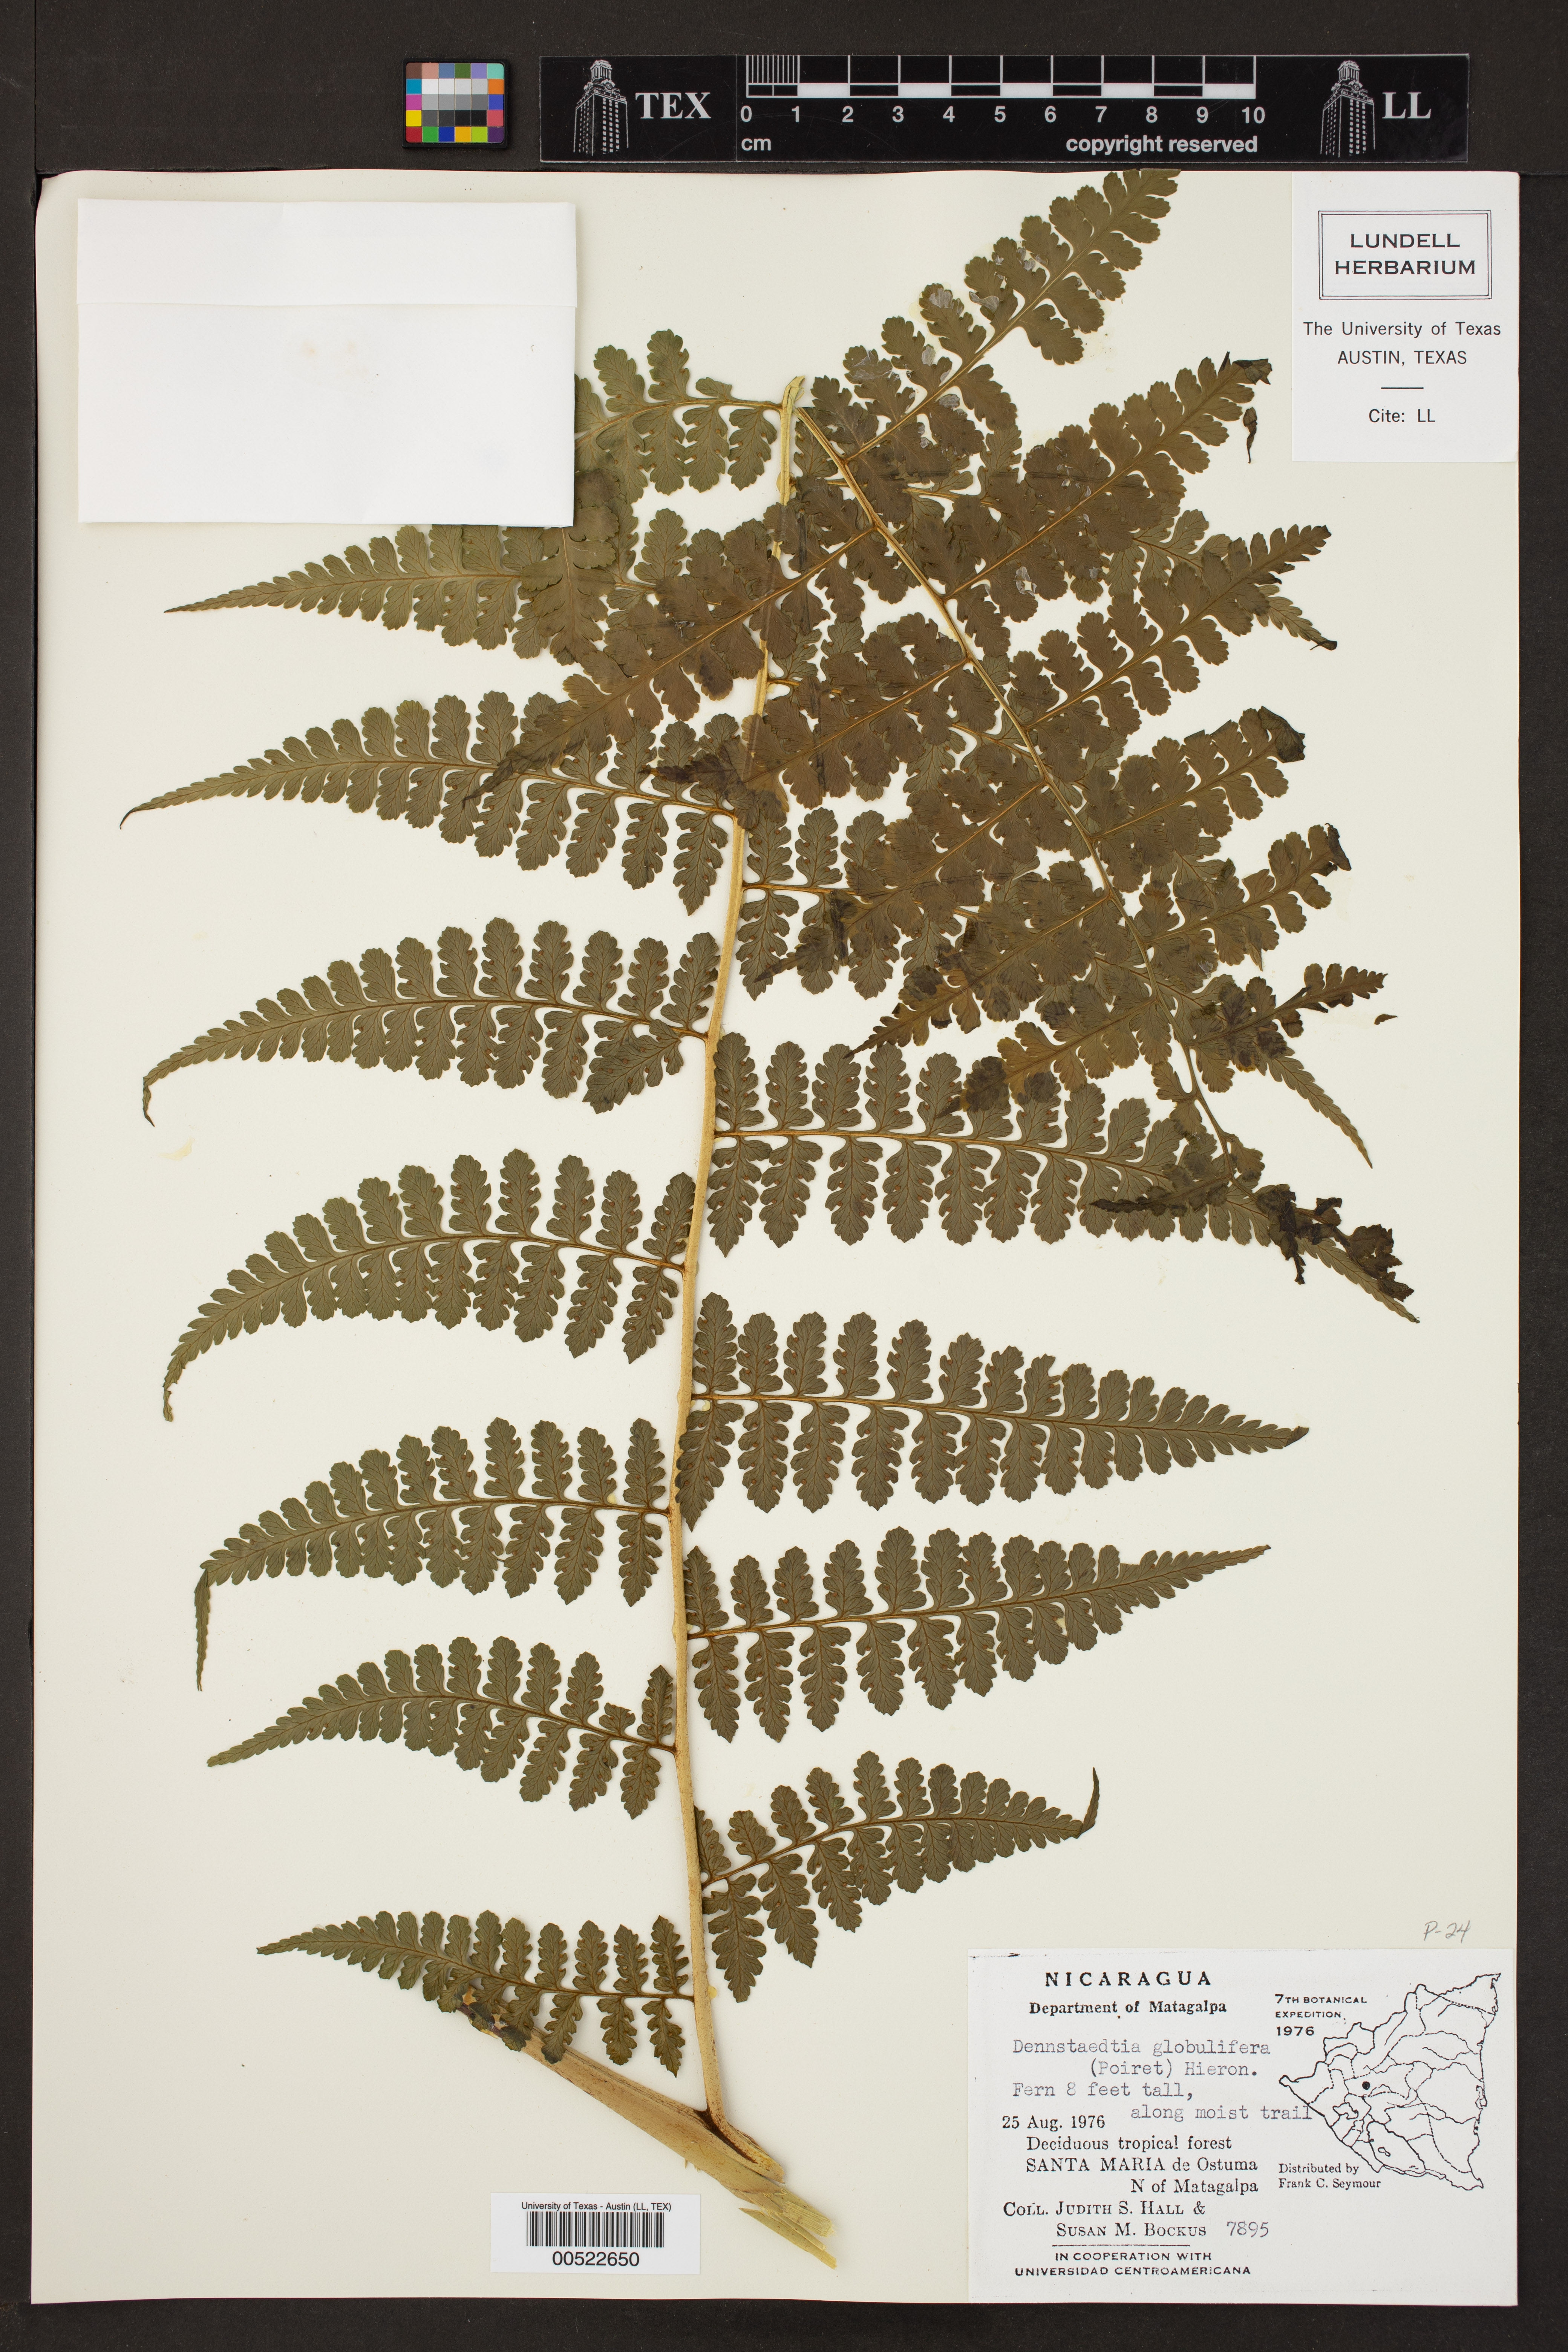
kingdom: Plantae
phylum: Tracheophyta
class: Polypodiopsida
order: Polypodiales
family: Dennstaedtiaceae
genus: Mucura
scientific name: Mucura globulifera
